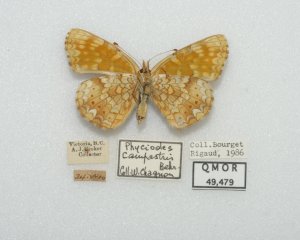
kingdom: Animalia
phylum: Arthropoda
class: Insecta
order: Lepidoptera
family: Nymphalidae
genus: Phyciodes
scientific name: Phyciodes tharos
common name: Field Crescent
